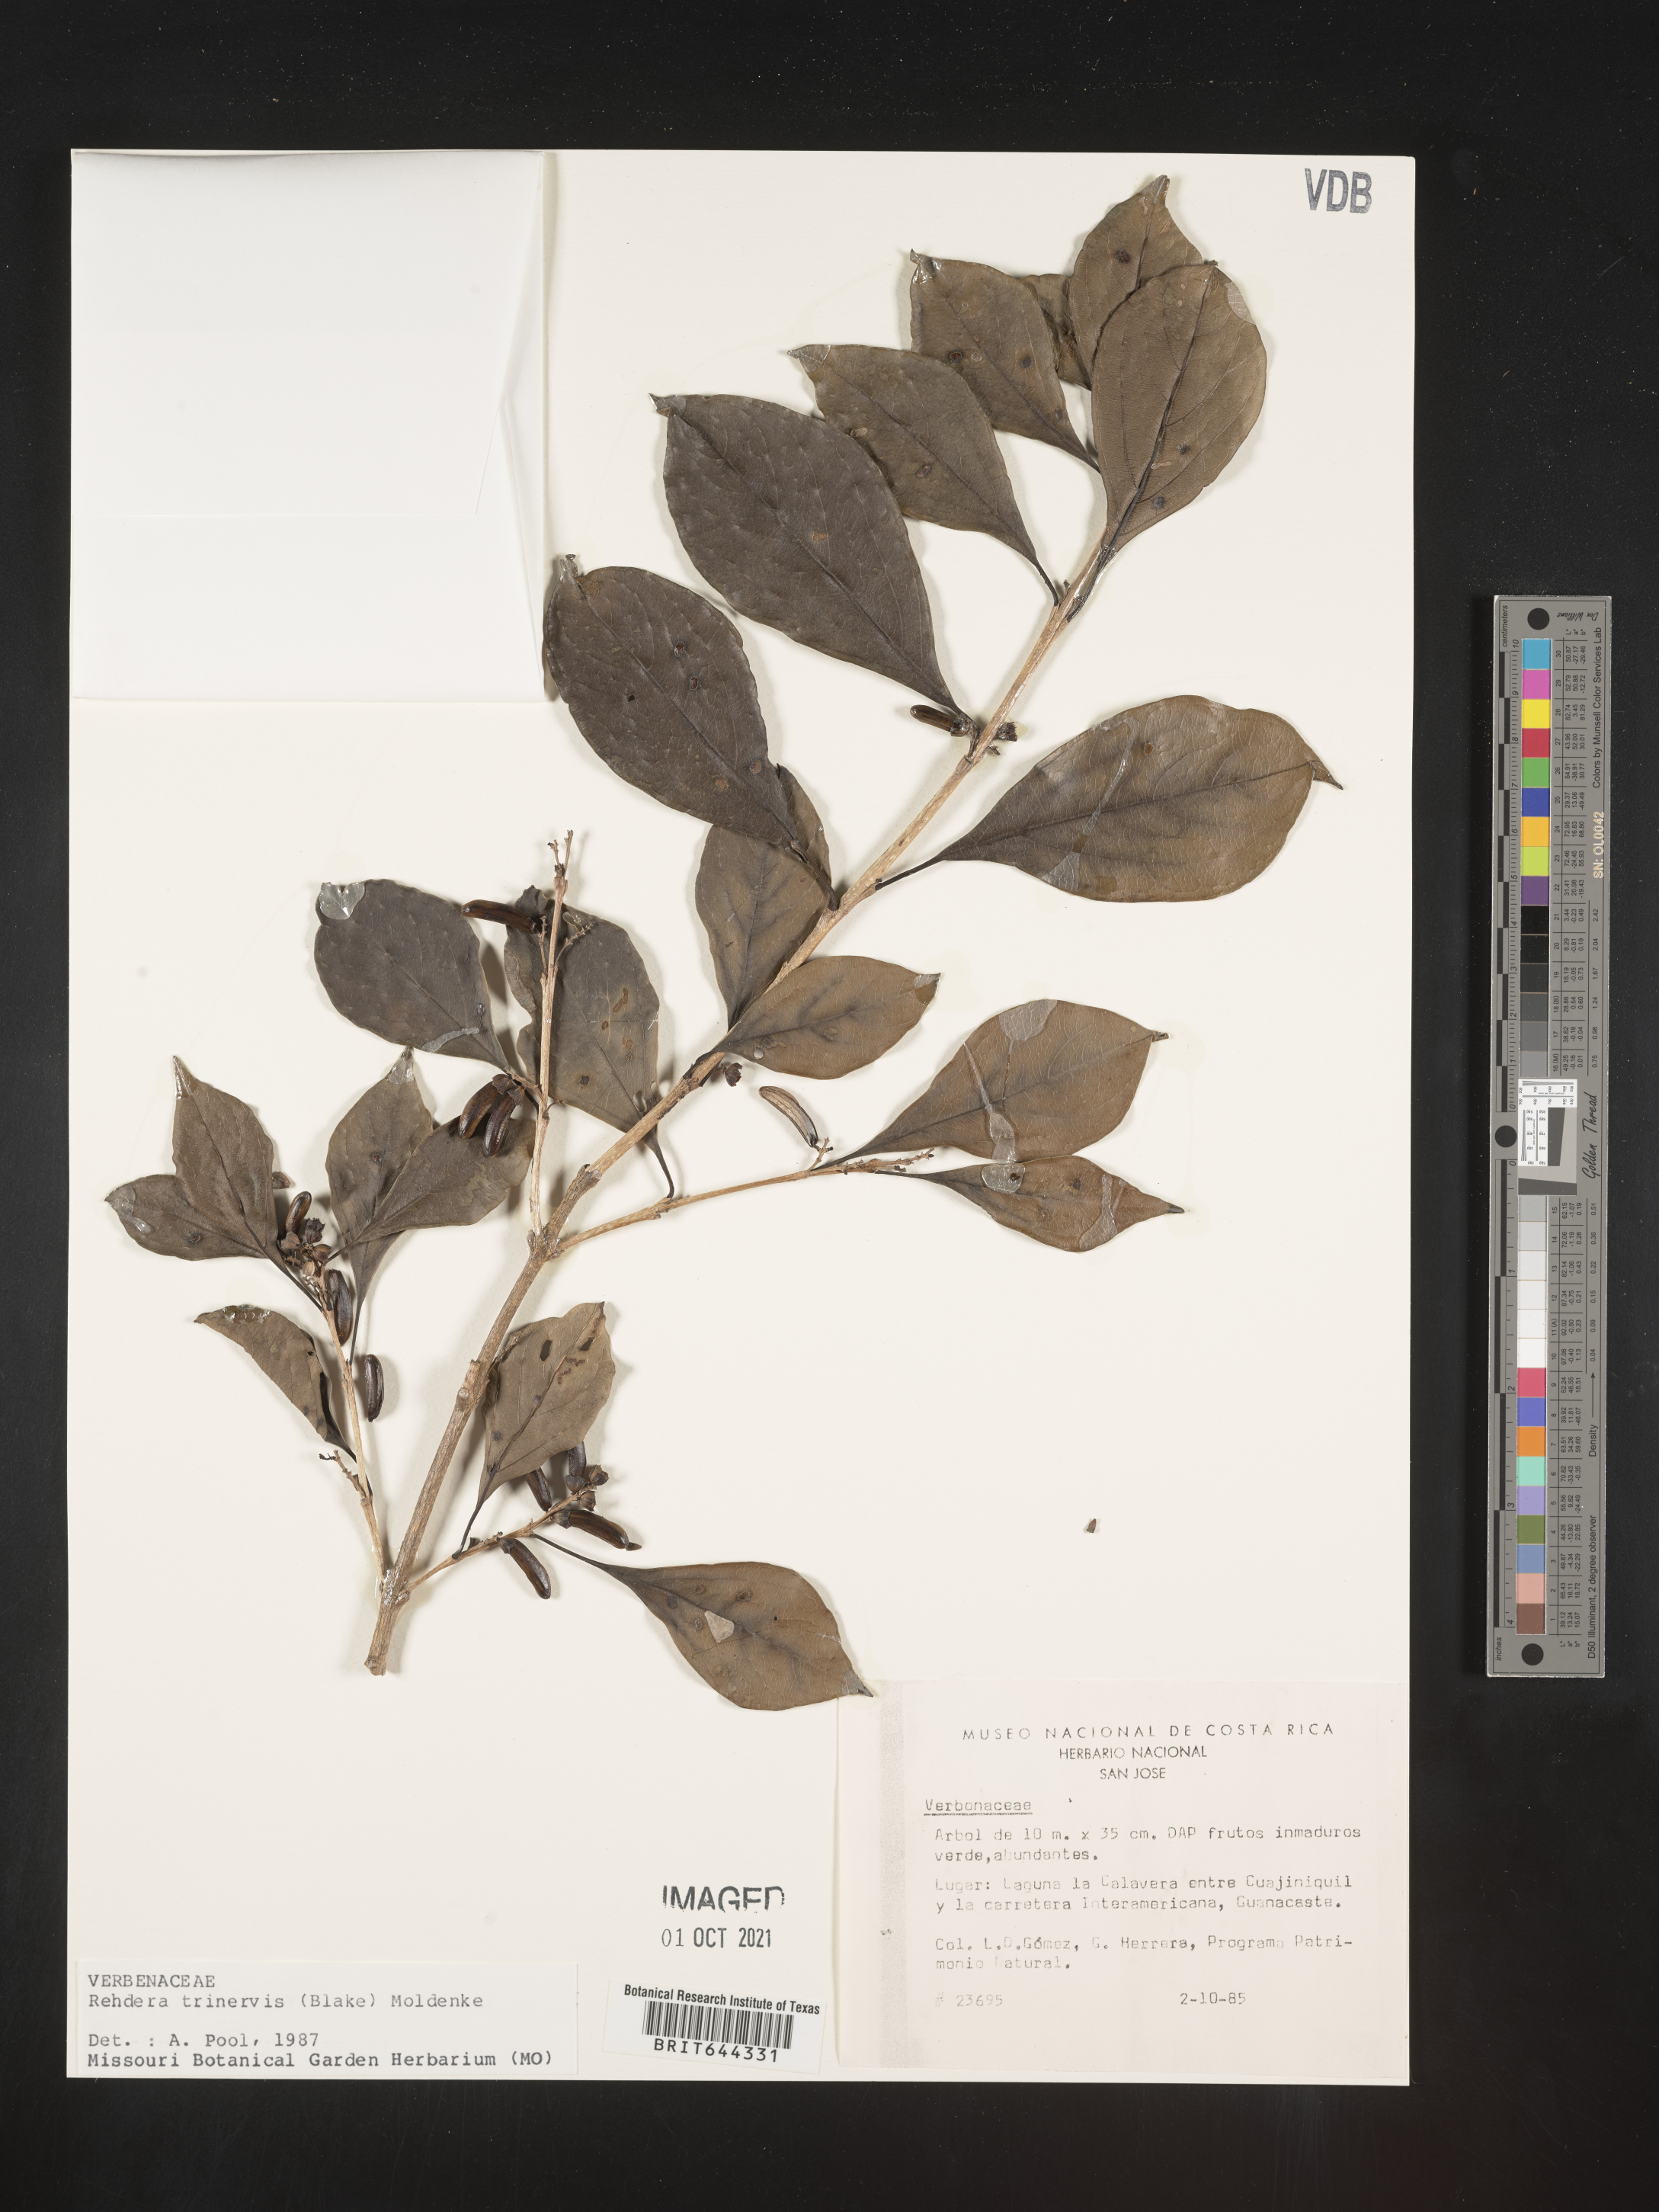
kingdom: Plantae
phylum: Tracheophyta
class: Magnoliopsida
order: Lamiales
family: Verbenaceae
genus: Rehdera
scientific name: Rehdera
